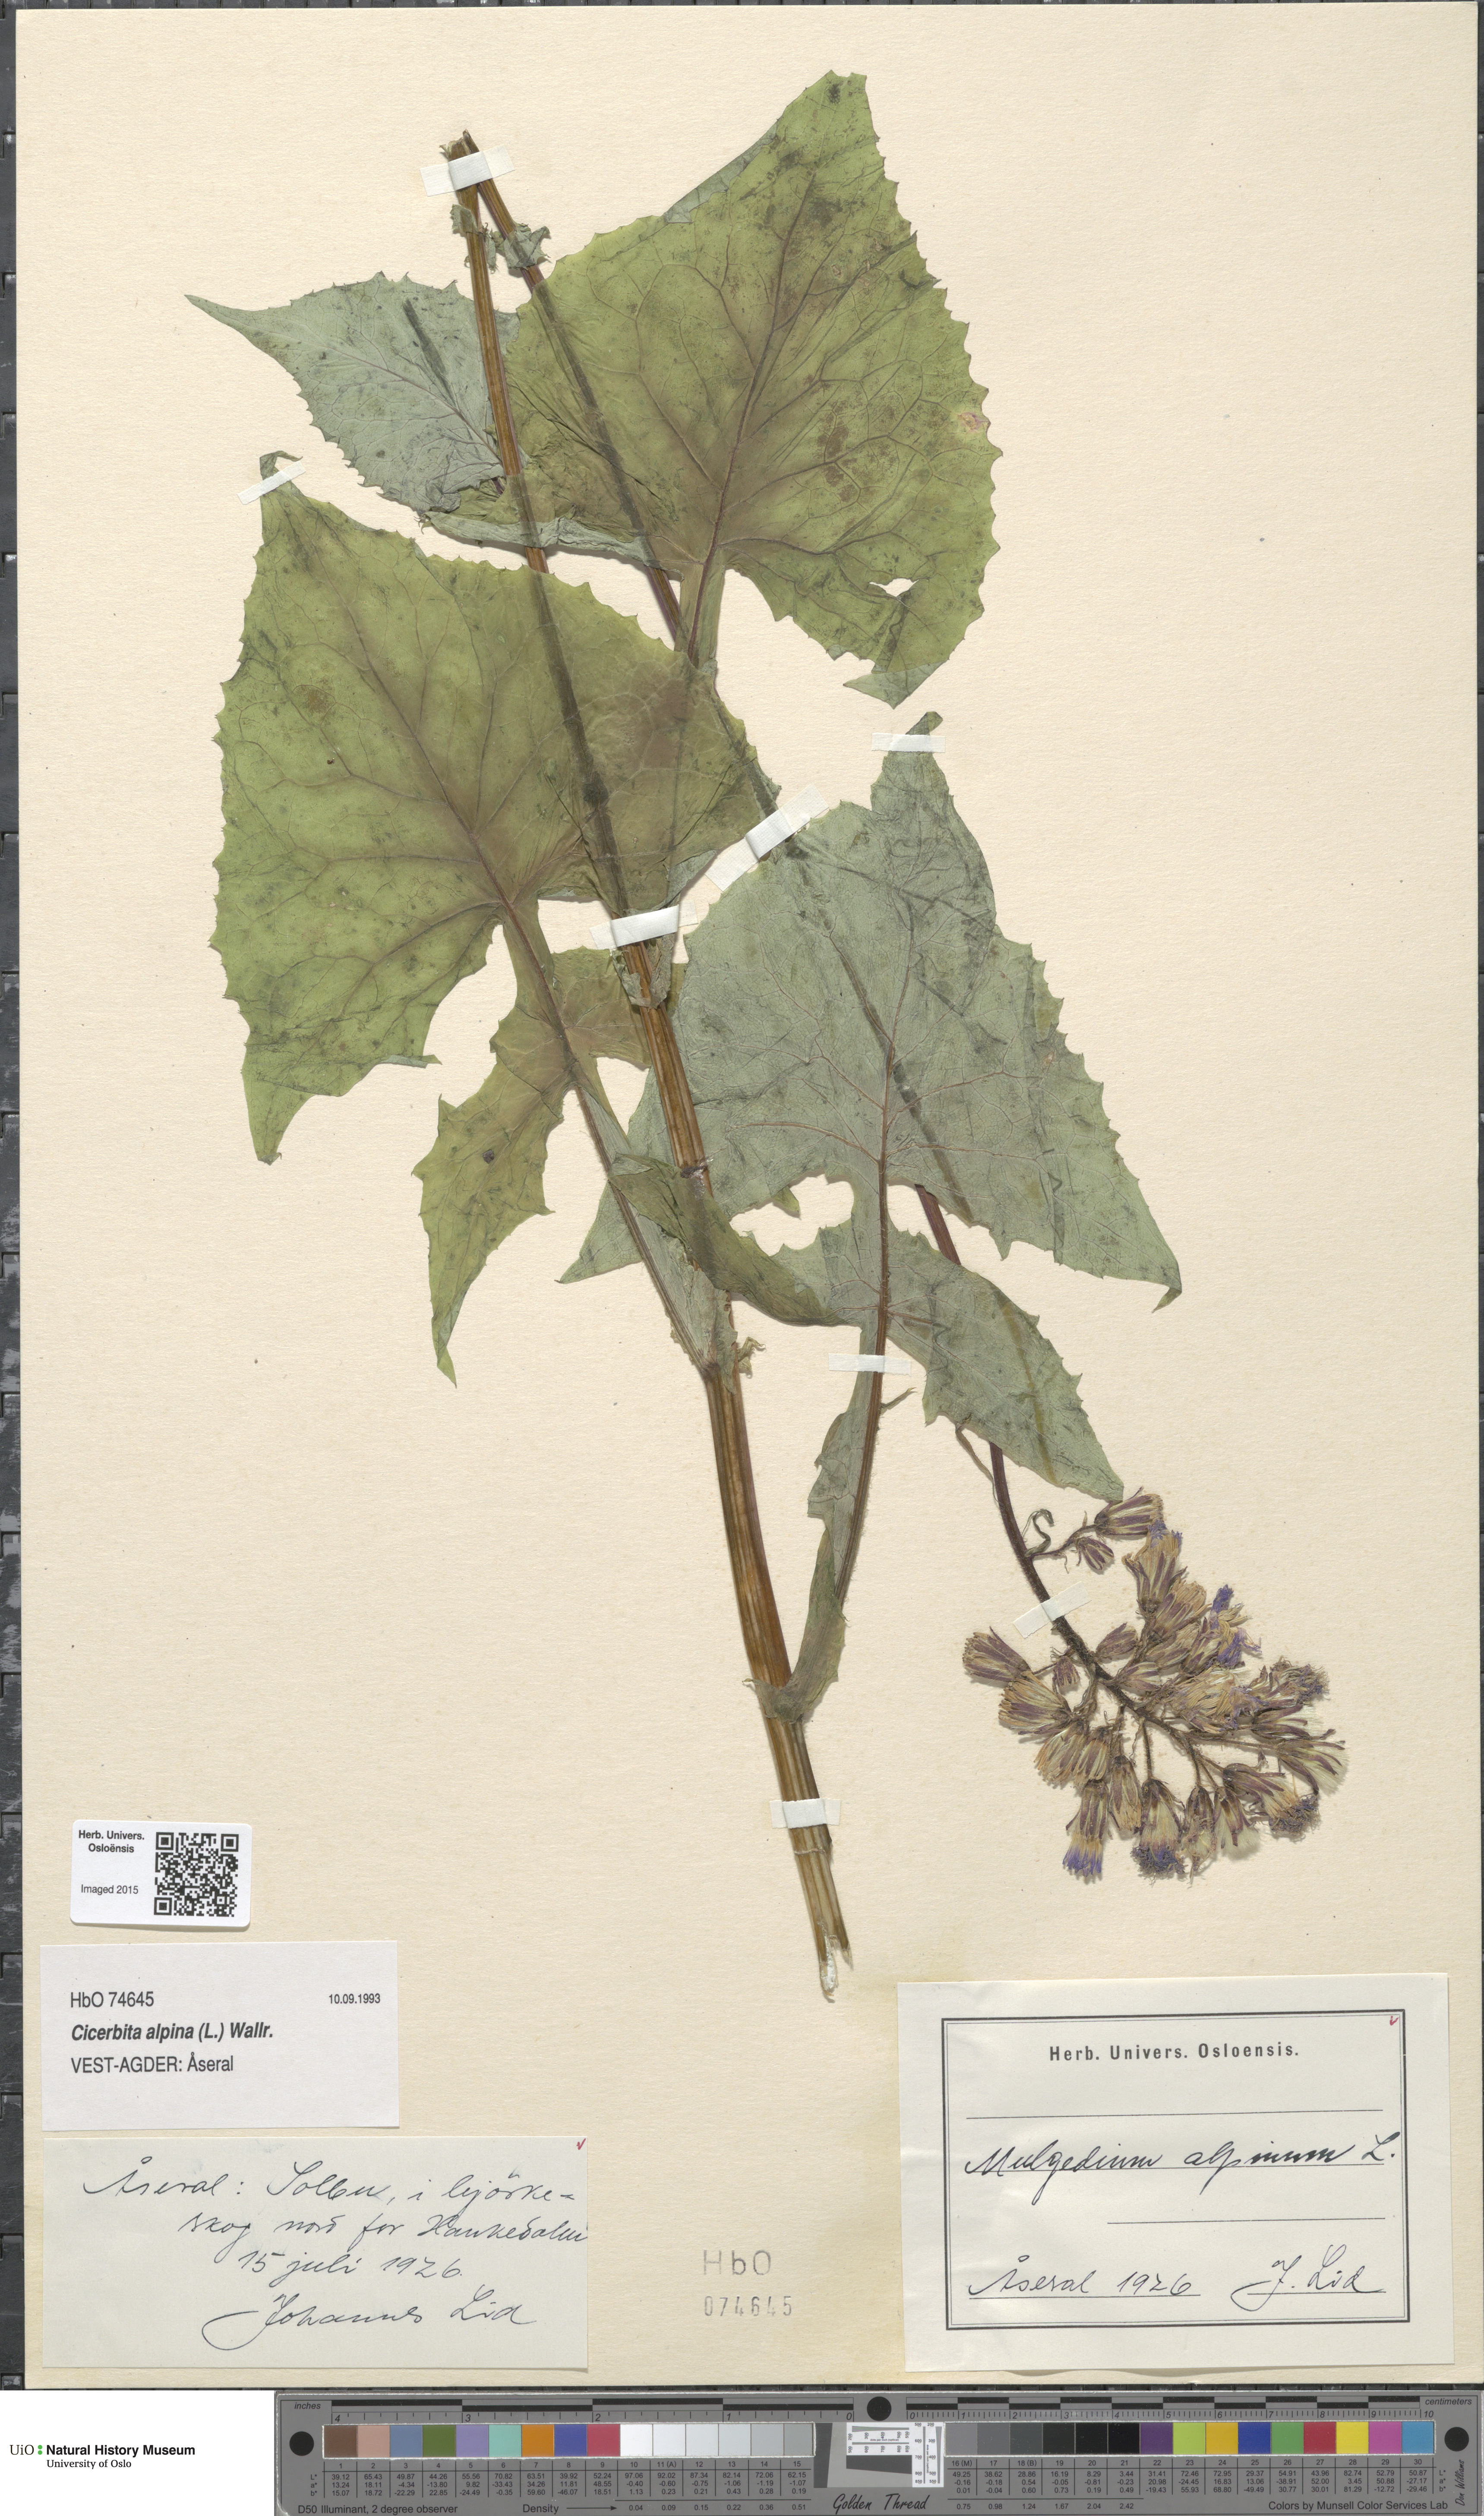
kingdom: Plantae
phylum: Tracheophyta
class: Magnoliopsida
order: Asterales
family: Asteraceae
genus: Cicerbita
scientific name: Cicerbita alpina
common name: Alpine blue-sow-thistle
